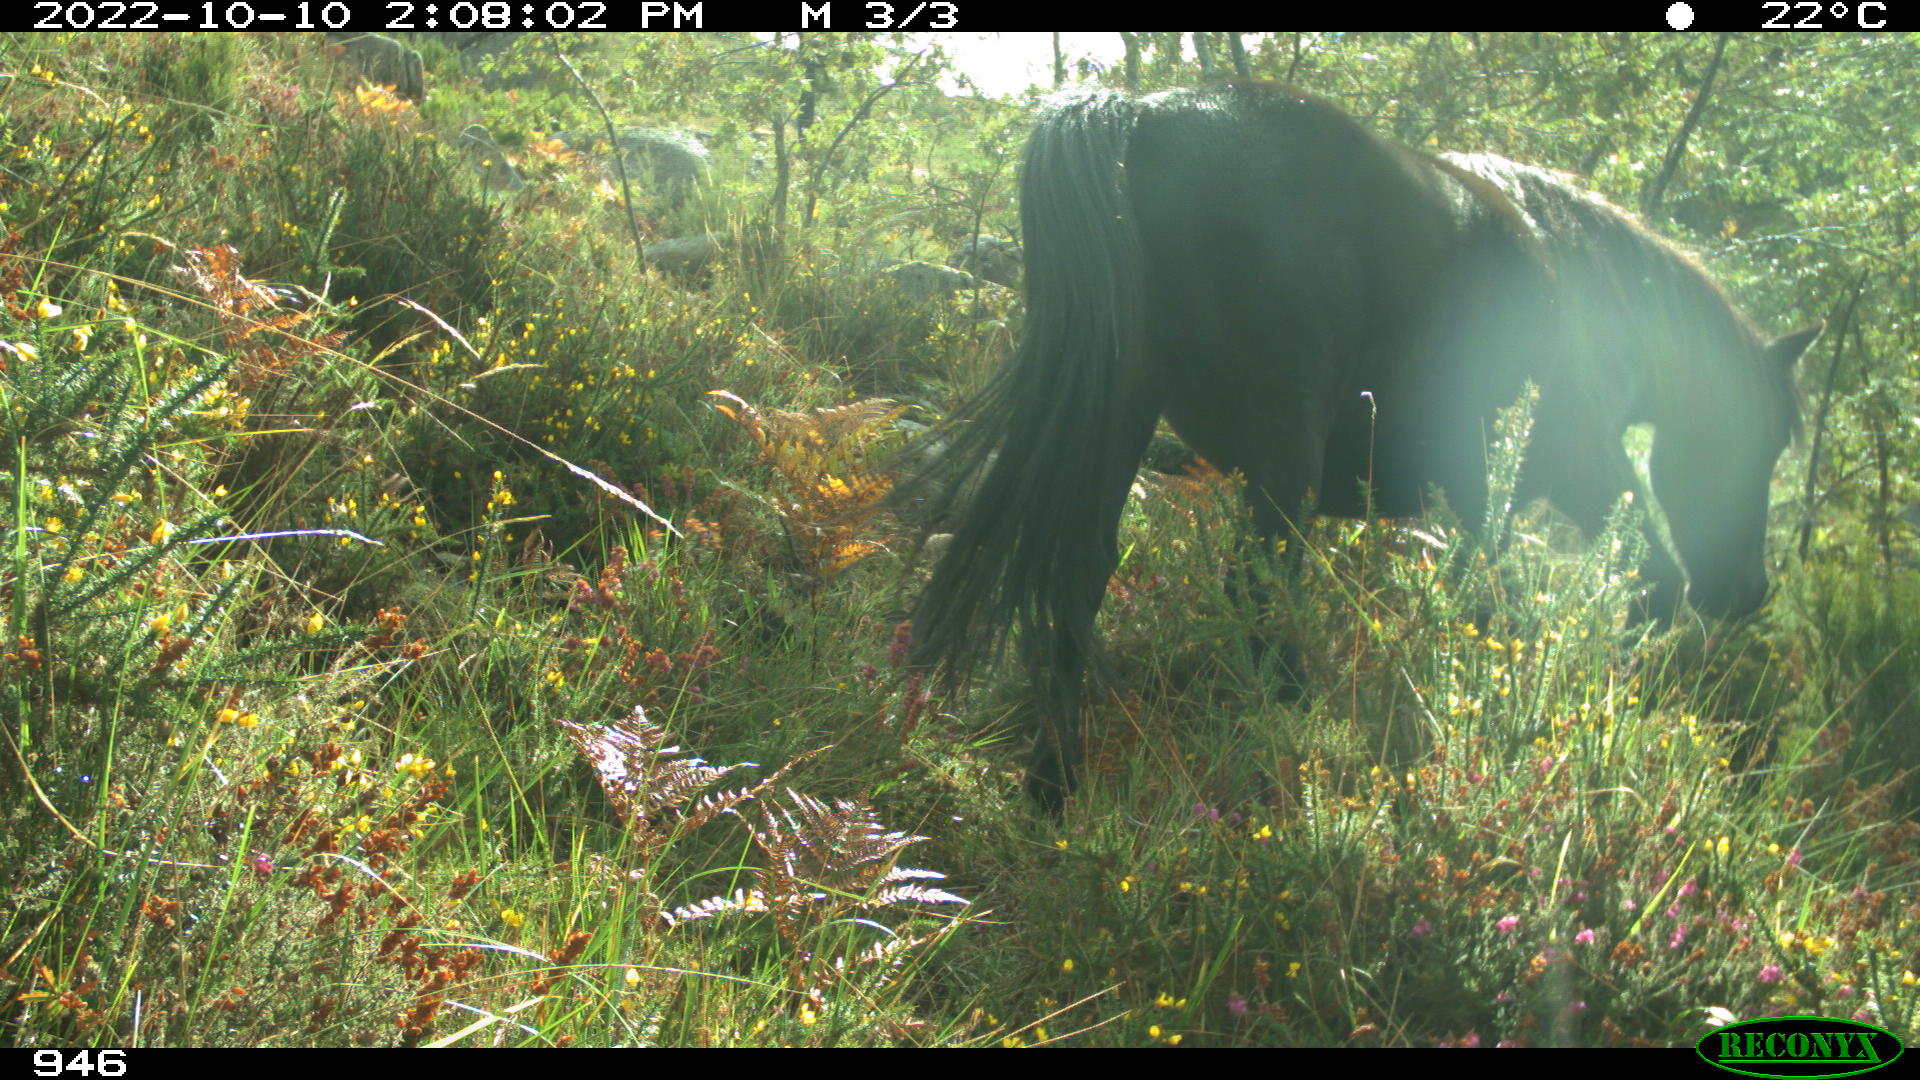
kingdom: Animalia
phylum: Chordata
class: Mammalia
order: Perissodactyla
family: Equidae
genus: Equus
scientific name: Equus caballus
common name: Horse
